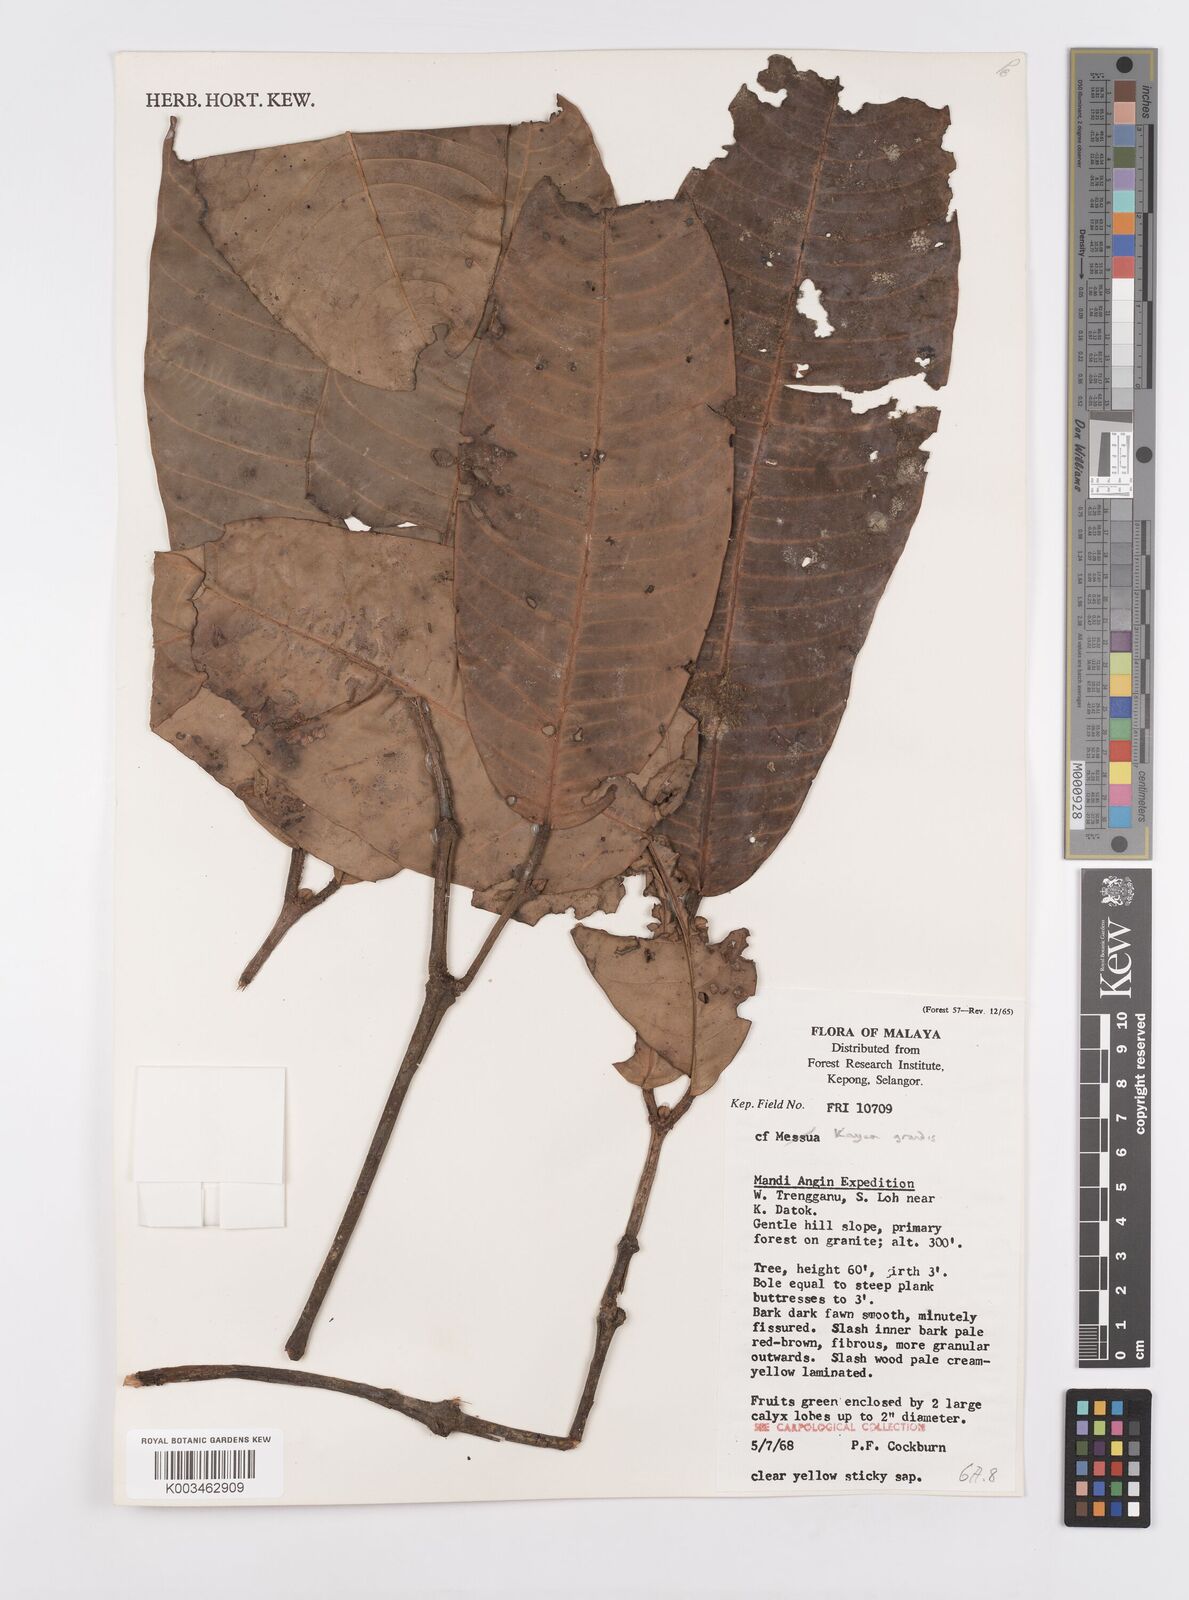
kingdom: Plantae
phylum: Tracheophyta
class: Magnoliopsida
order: Malpighiales
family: Calophyllaceae
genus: Kayea
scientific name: Kayea grandis
